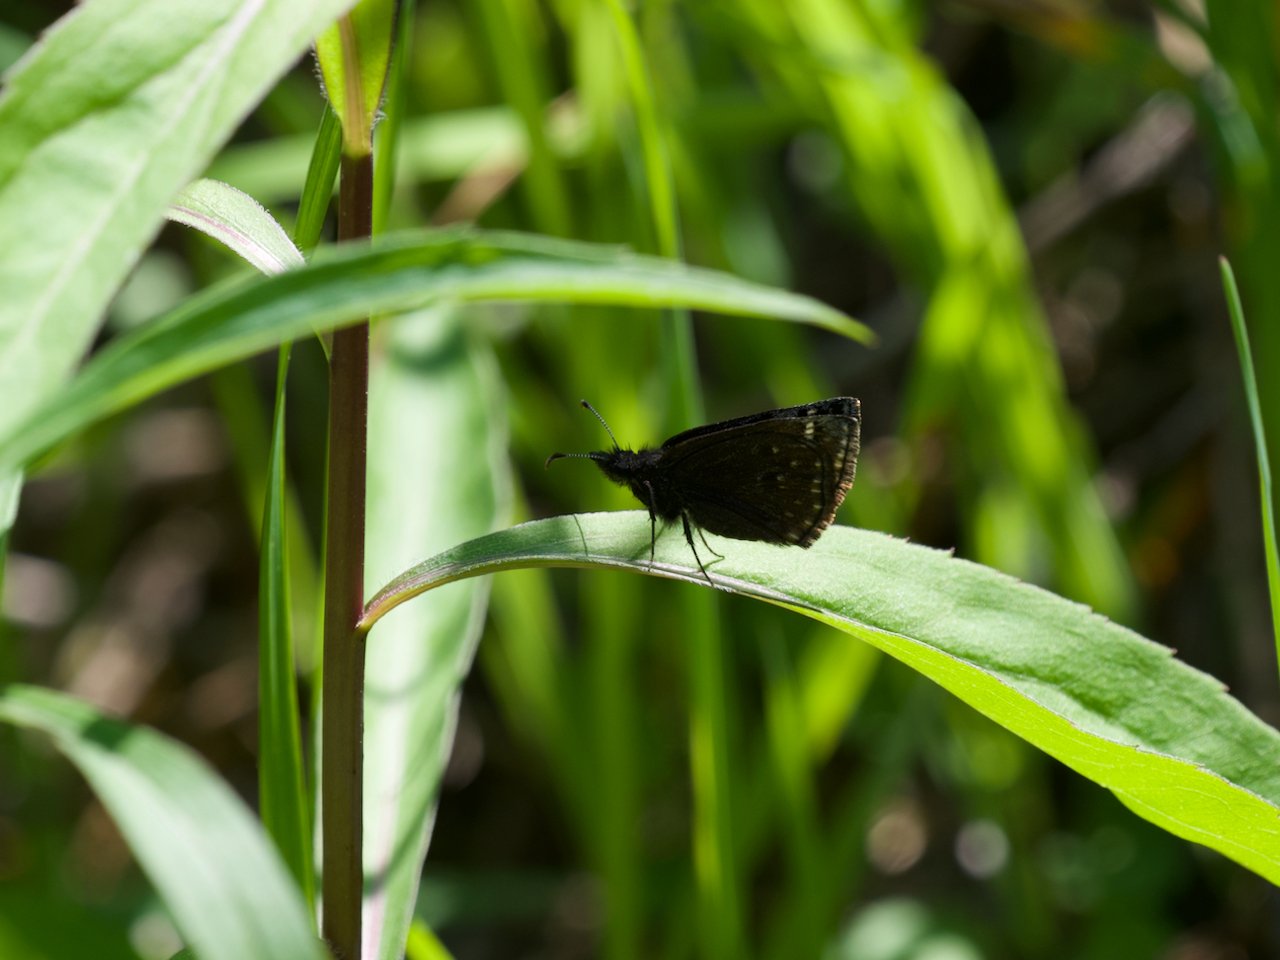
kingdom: Animalia
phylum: Arthropoda
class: Insecta
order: Lepidoptera
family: Hesperiidae
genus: Erynnis
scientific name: Erynnis icelus
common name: Dreamy Duskywing
